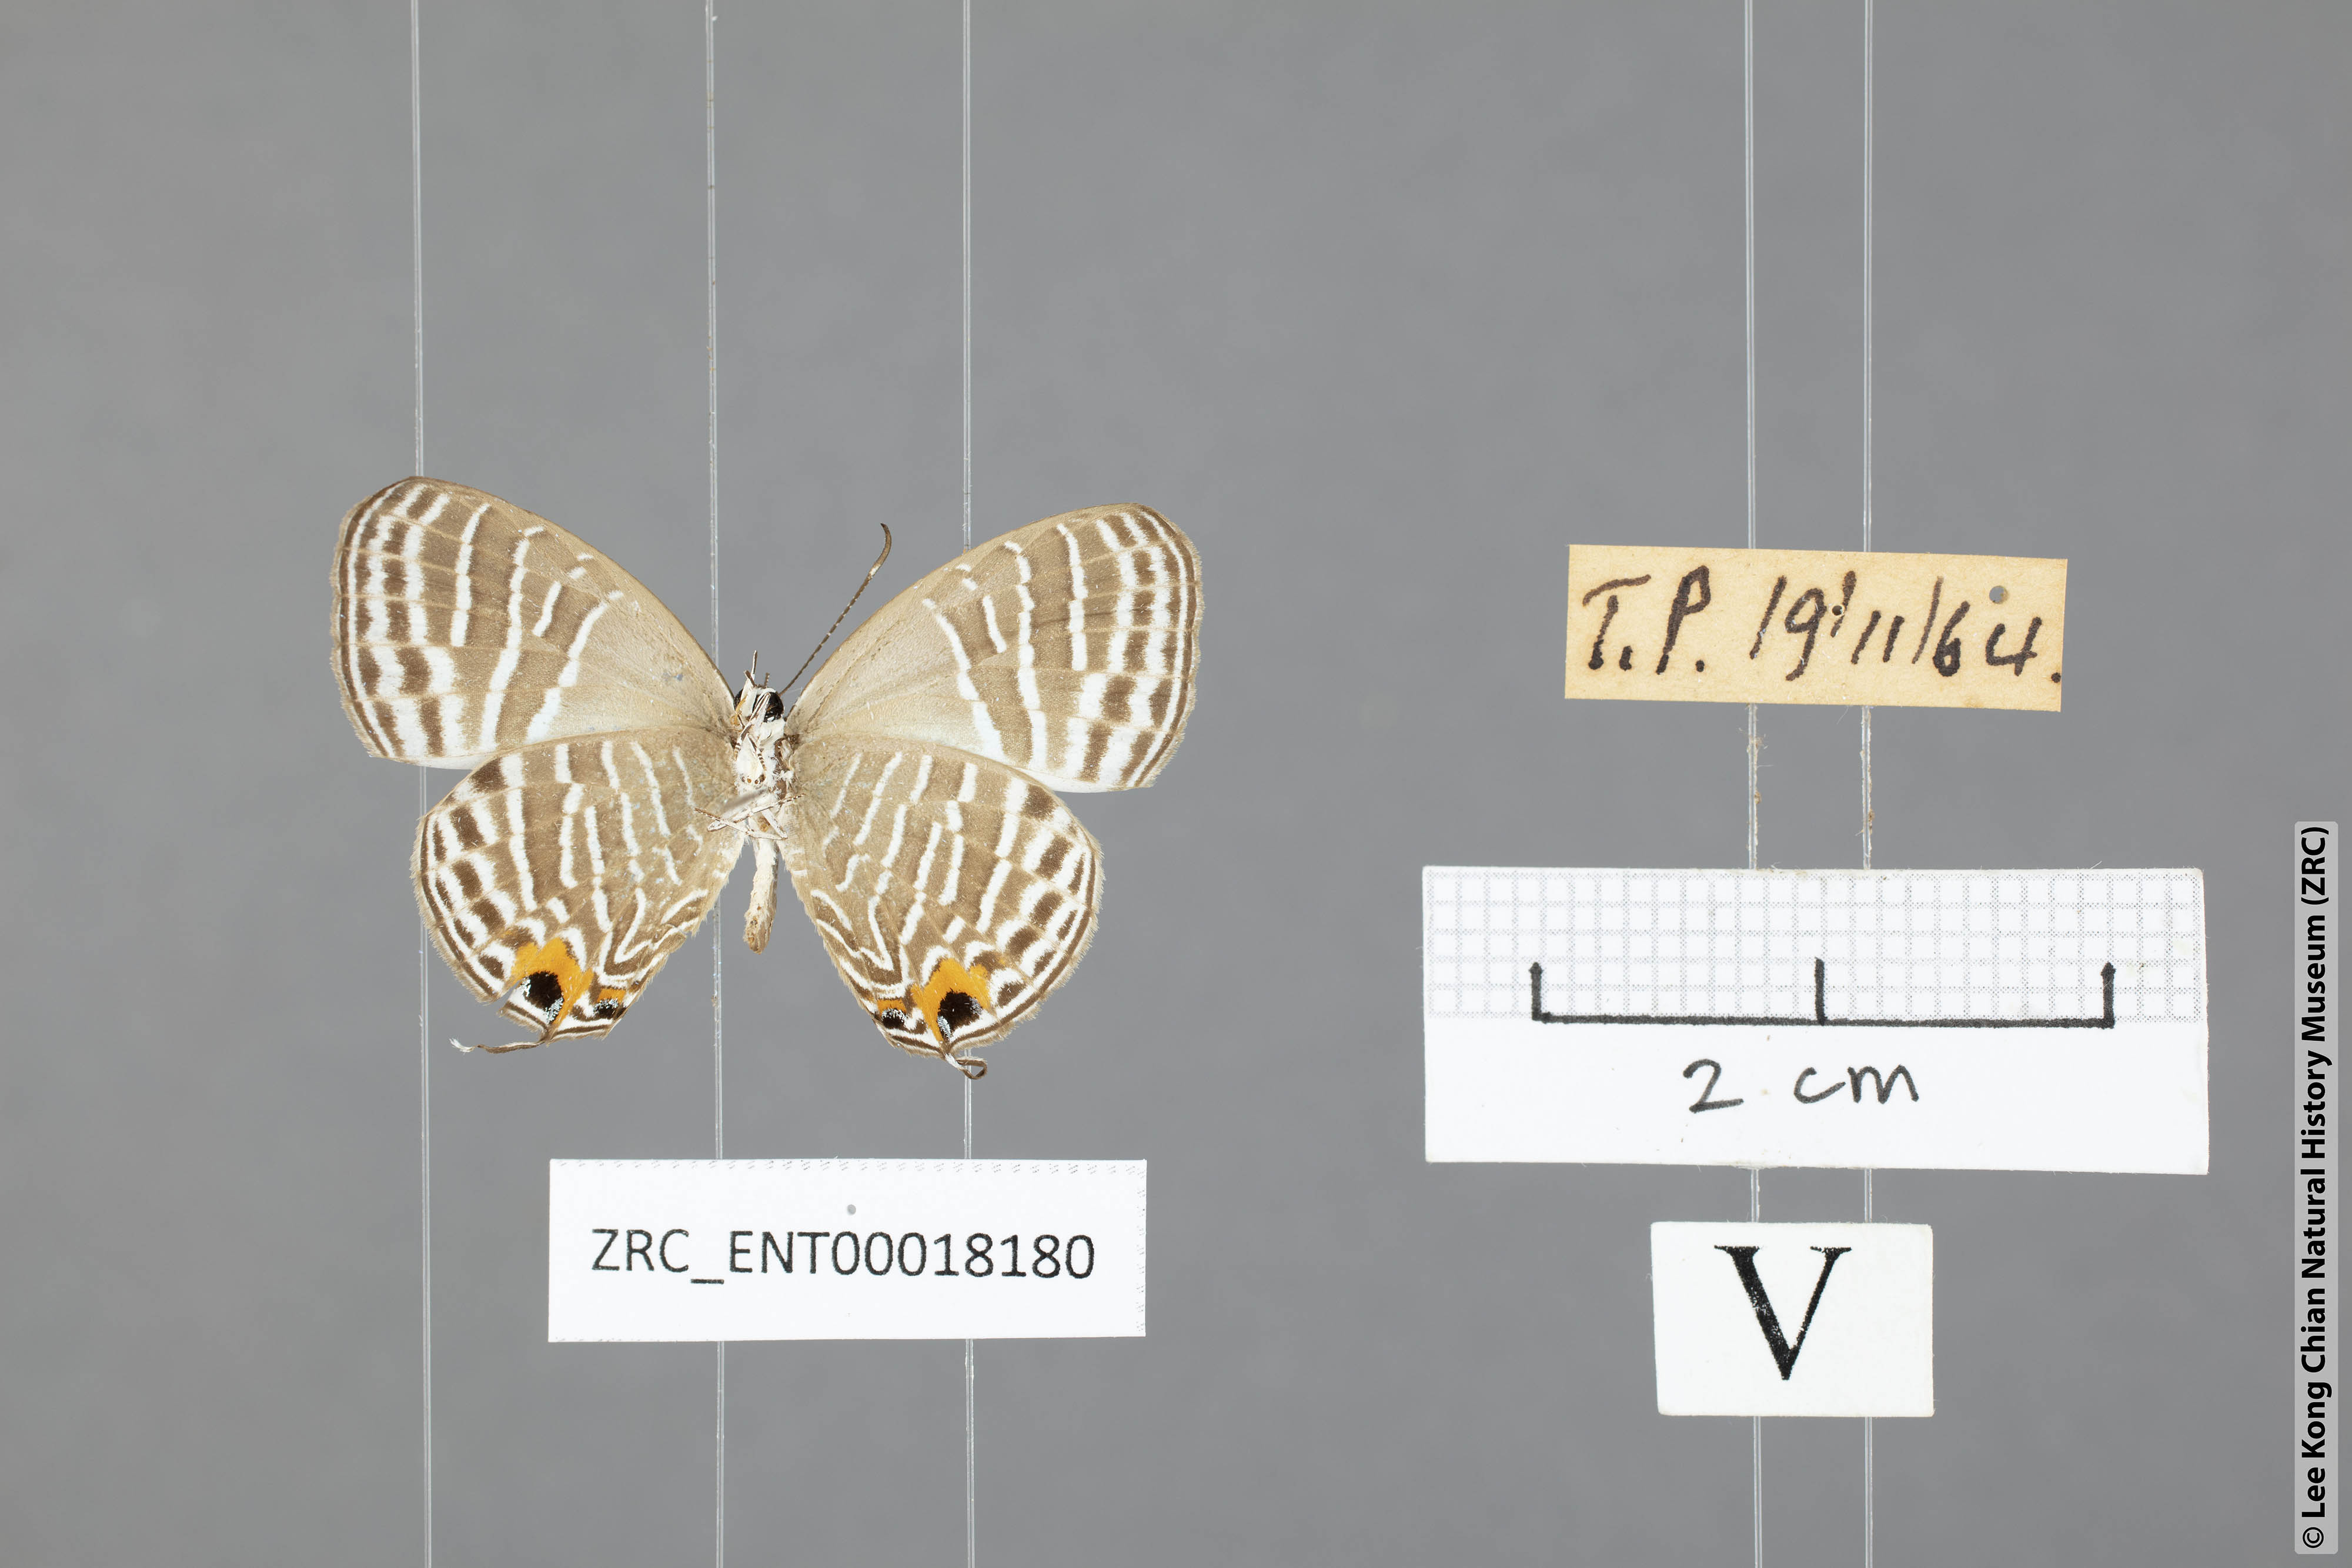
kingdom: Animalia
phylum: Arthropoda
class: Insecta
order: Lepidoptera
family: Lycaenidae
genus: Jamides
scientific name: Jamides pura
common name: White cerulean
